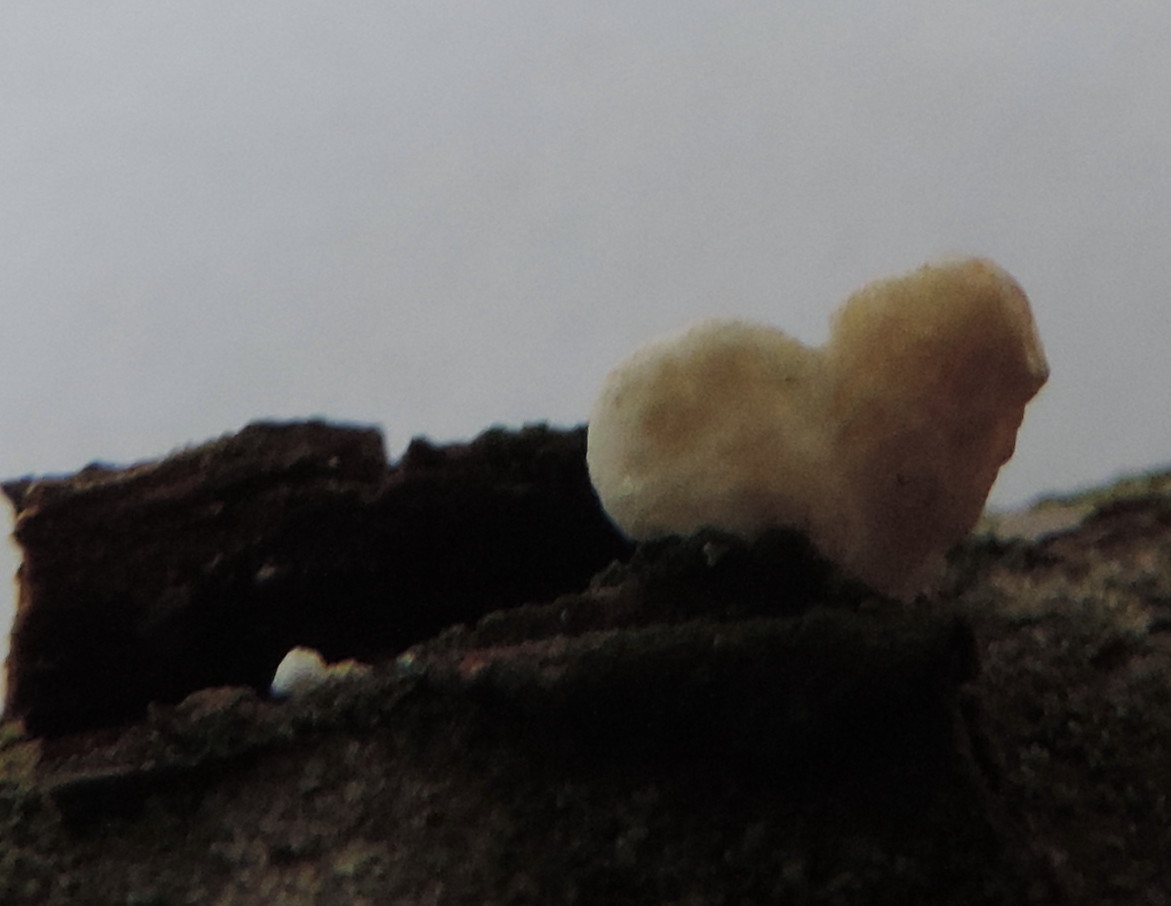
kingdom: Fungi
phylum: Basidiomycota
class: Agaricomycetes
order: Agaricales
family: Crepidotaceae
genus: Crepidotus
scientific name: Crepidotus cesatii
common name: almindelig muslingesvamp
